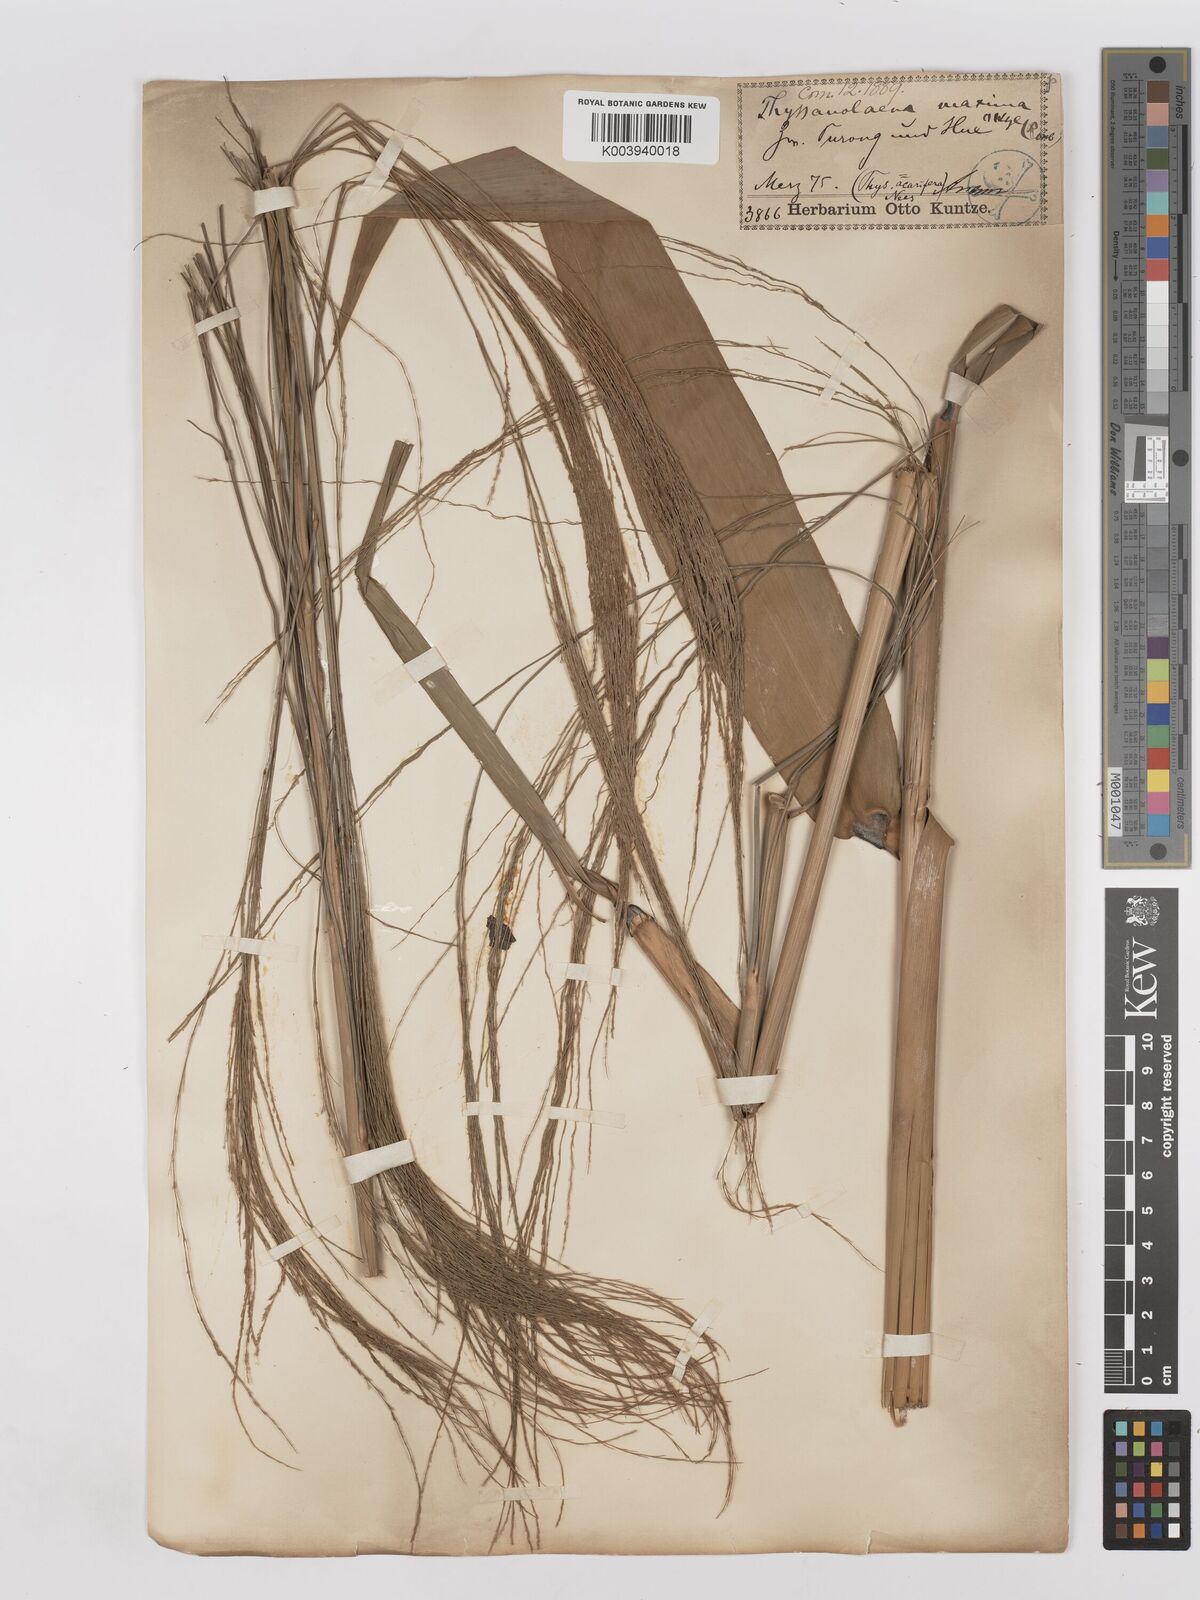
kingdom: Plantae
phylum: Tracheophyta
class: Liliopsida
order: Poales
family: Poaceae
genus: Thysanolaena
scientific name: Thysanolaena latifolia
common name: Tiger grass
